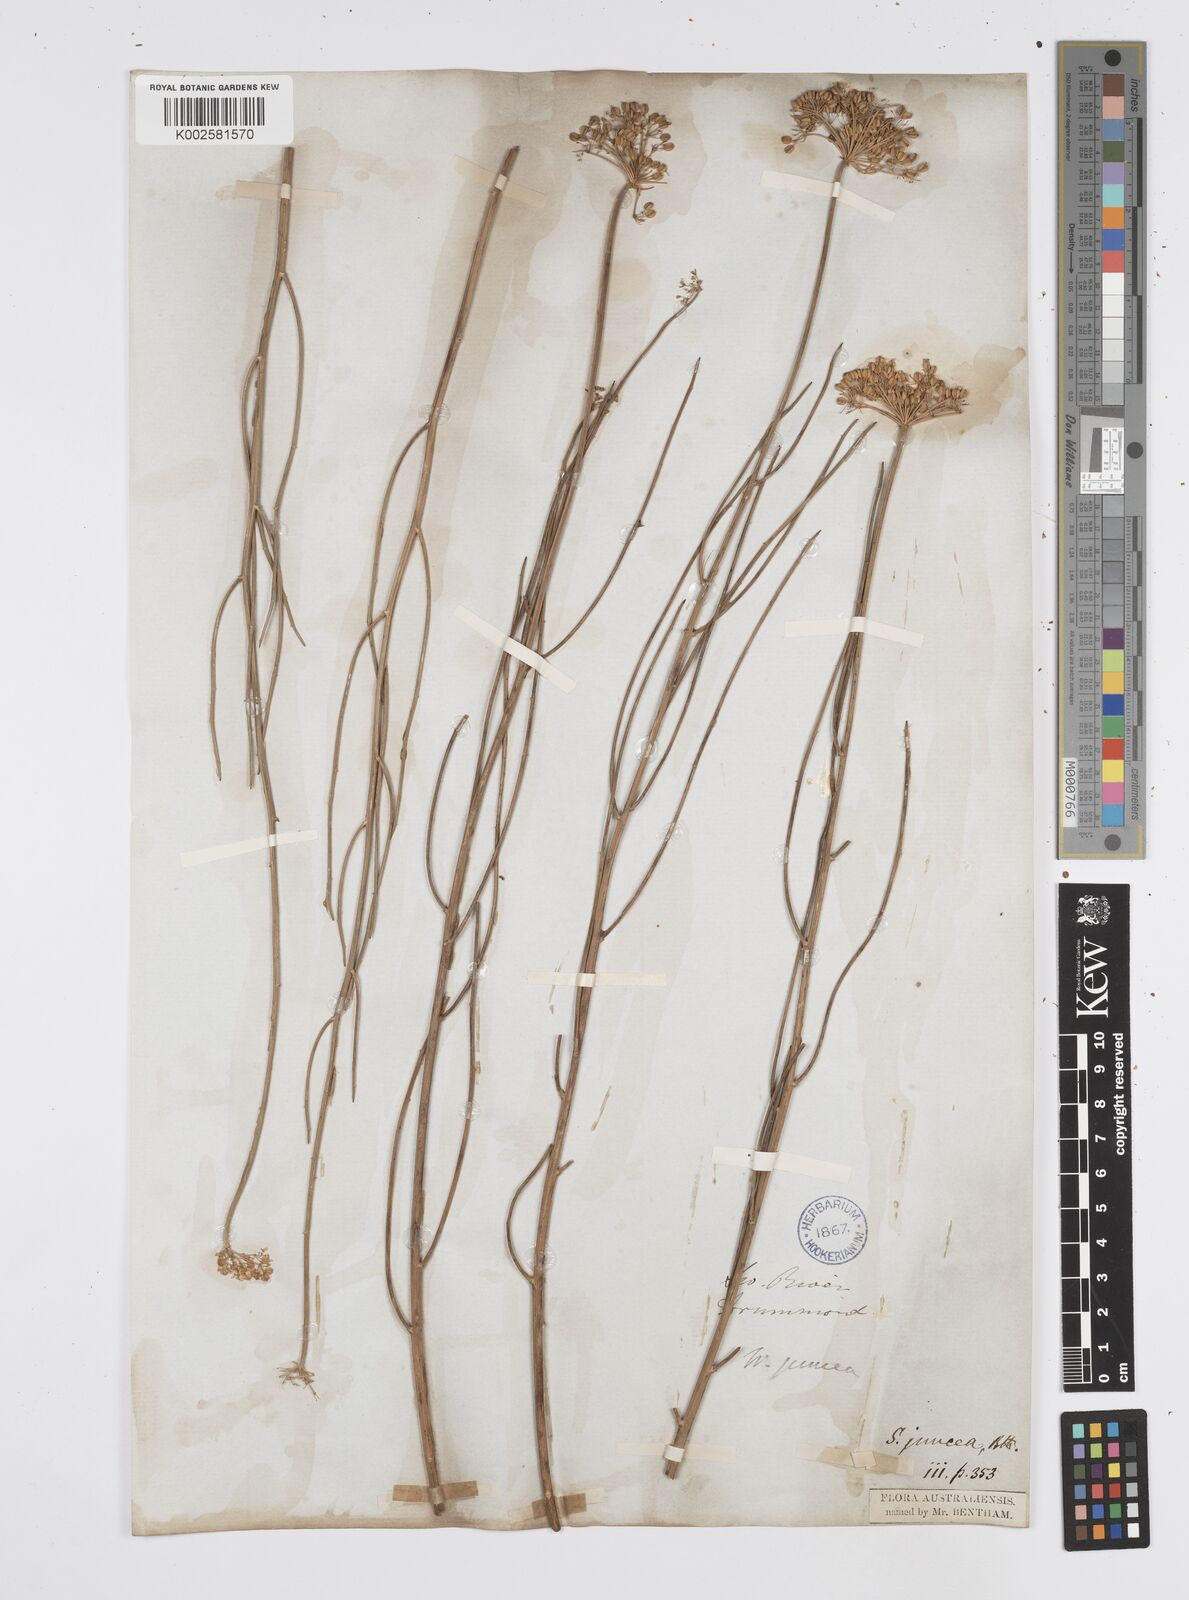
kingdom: Plantae
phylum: Tracheophyta
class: Magnoliopsida
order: Apiales
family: Apiaceae
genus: Platysace
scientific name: Platysace juncea
